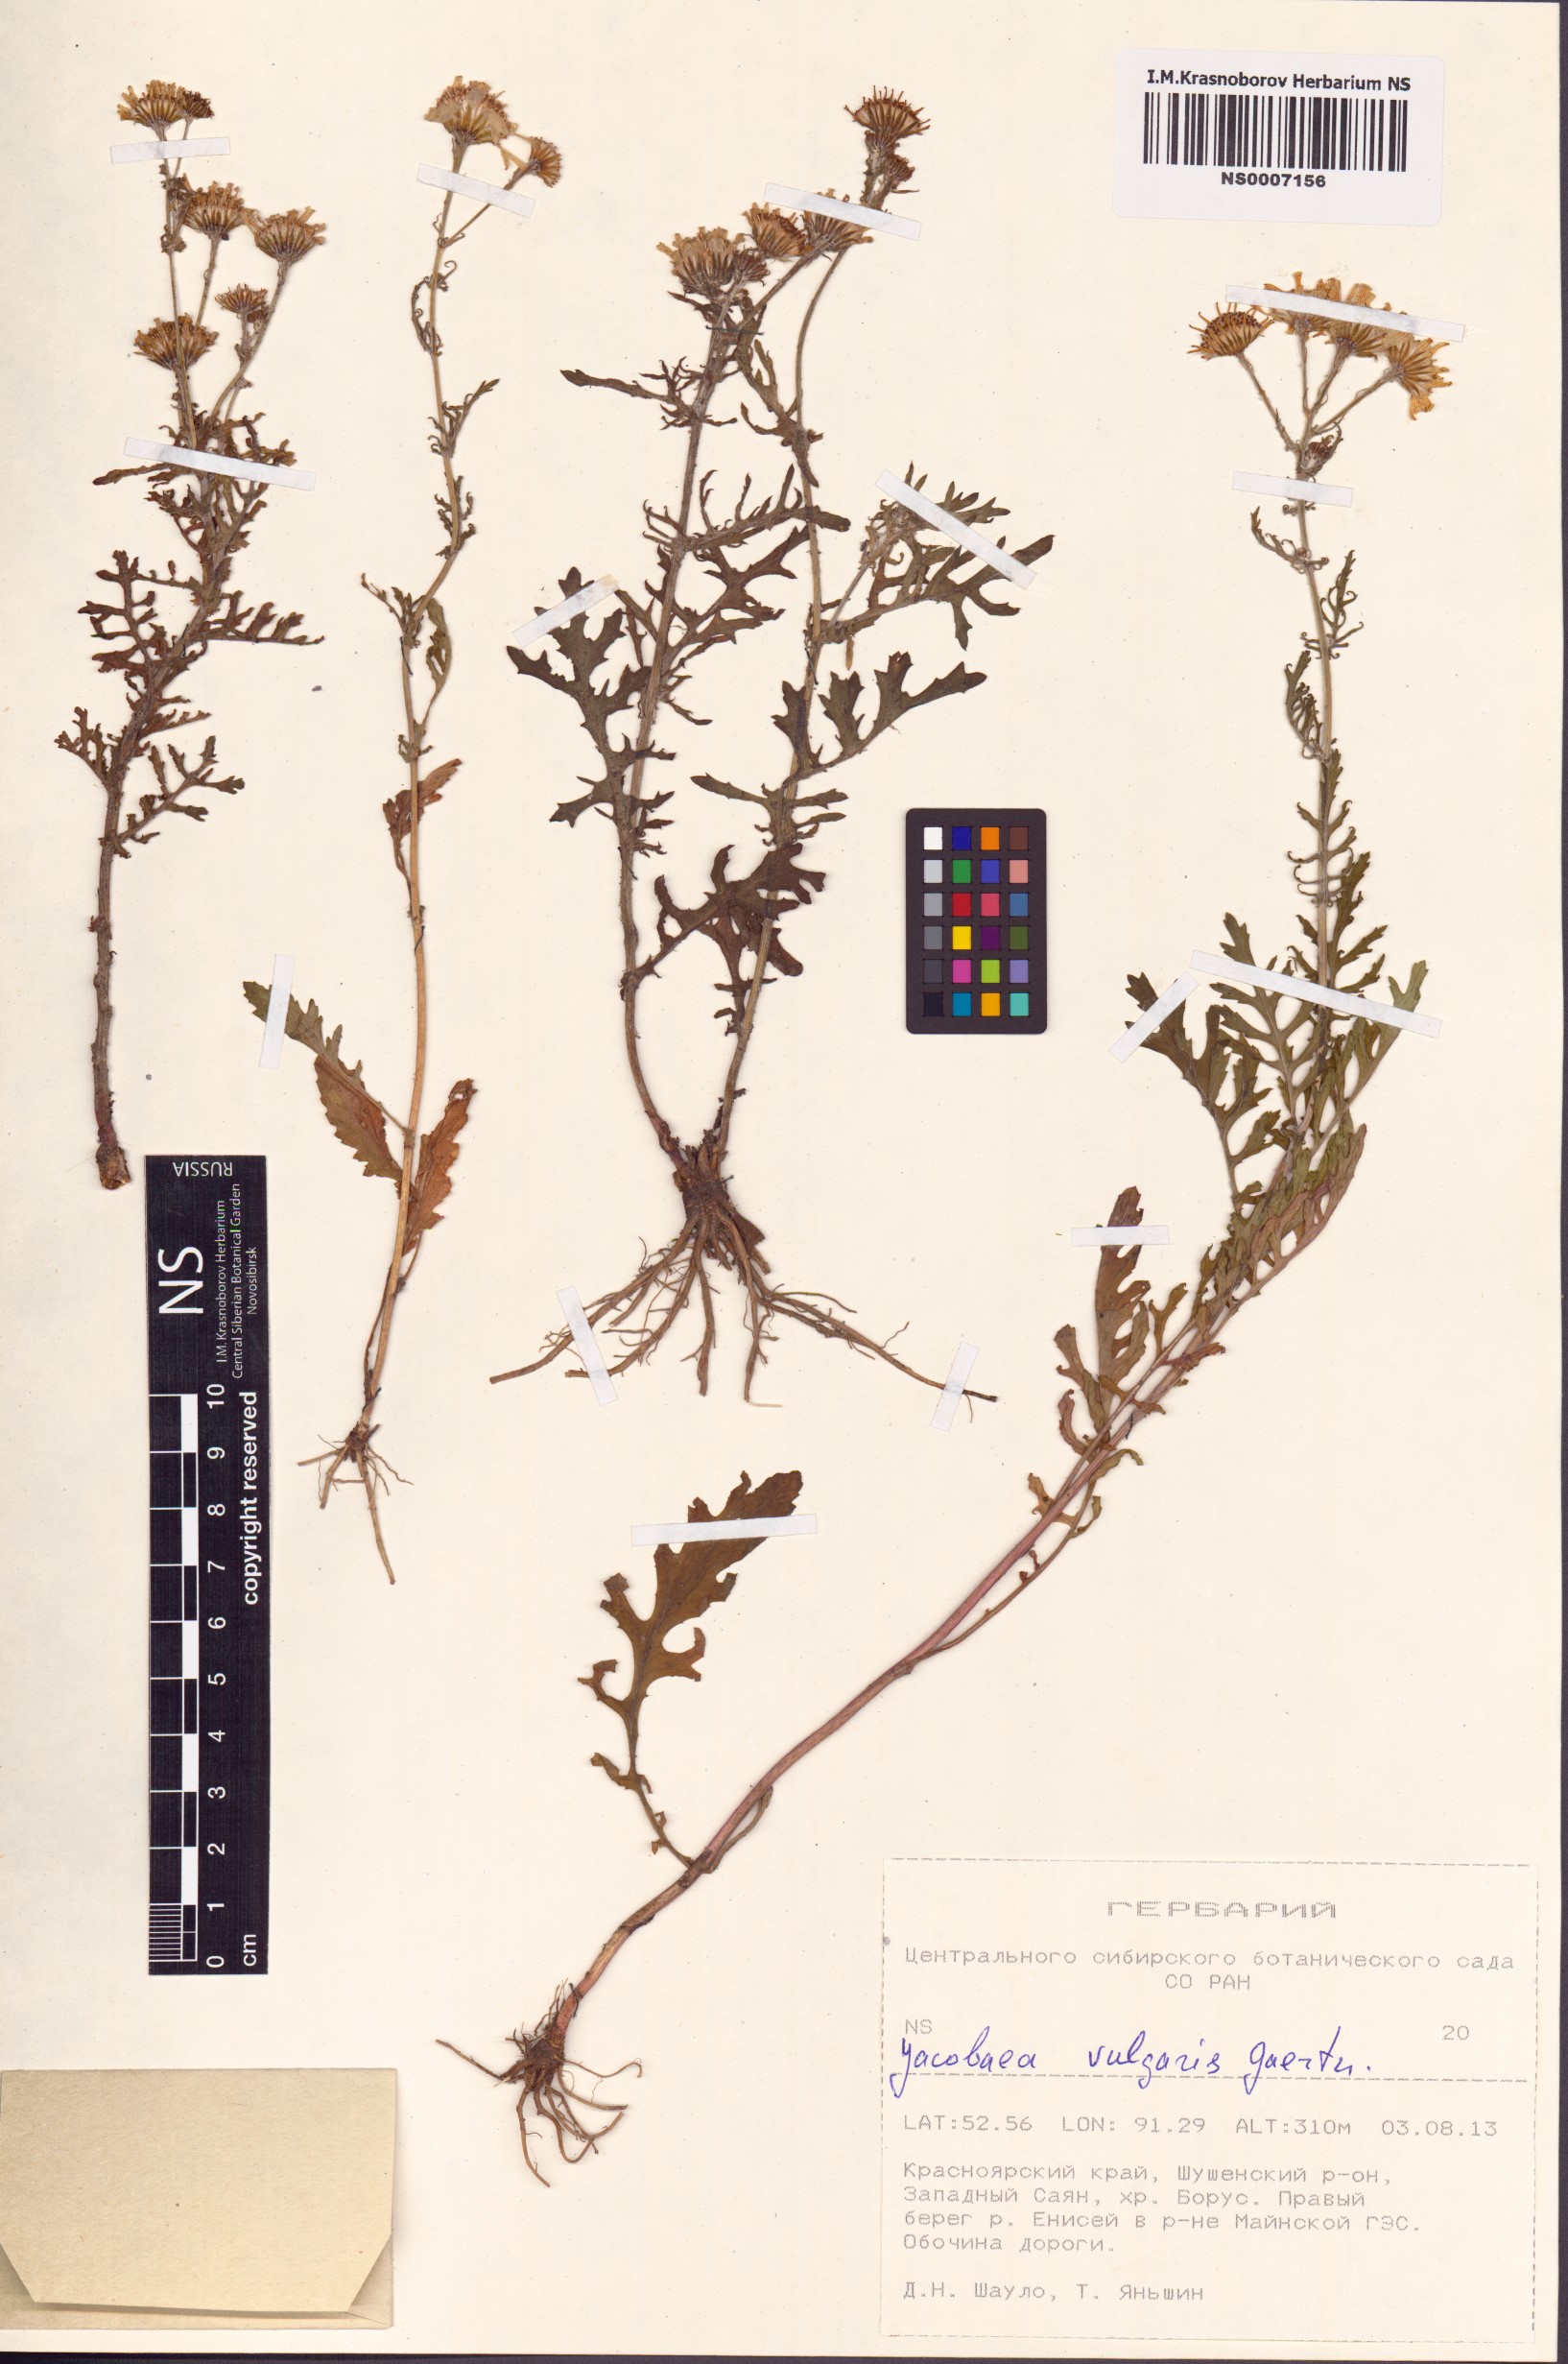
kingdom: Plantae
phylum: Tracheophyta
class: Magnoliopsida
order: Asterales
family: Asteraceae
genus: Jacobaea
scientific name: Jacobaea vulgaris
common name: Stinking willie
